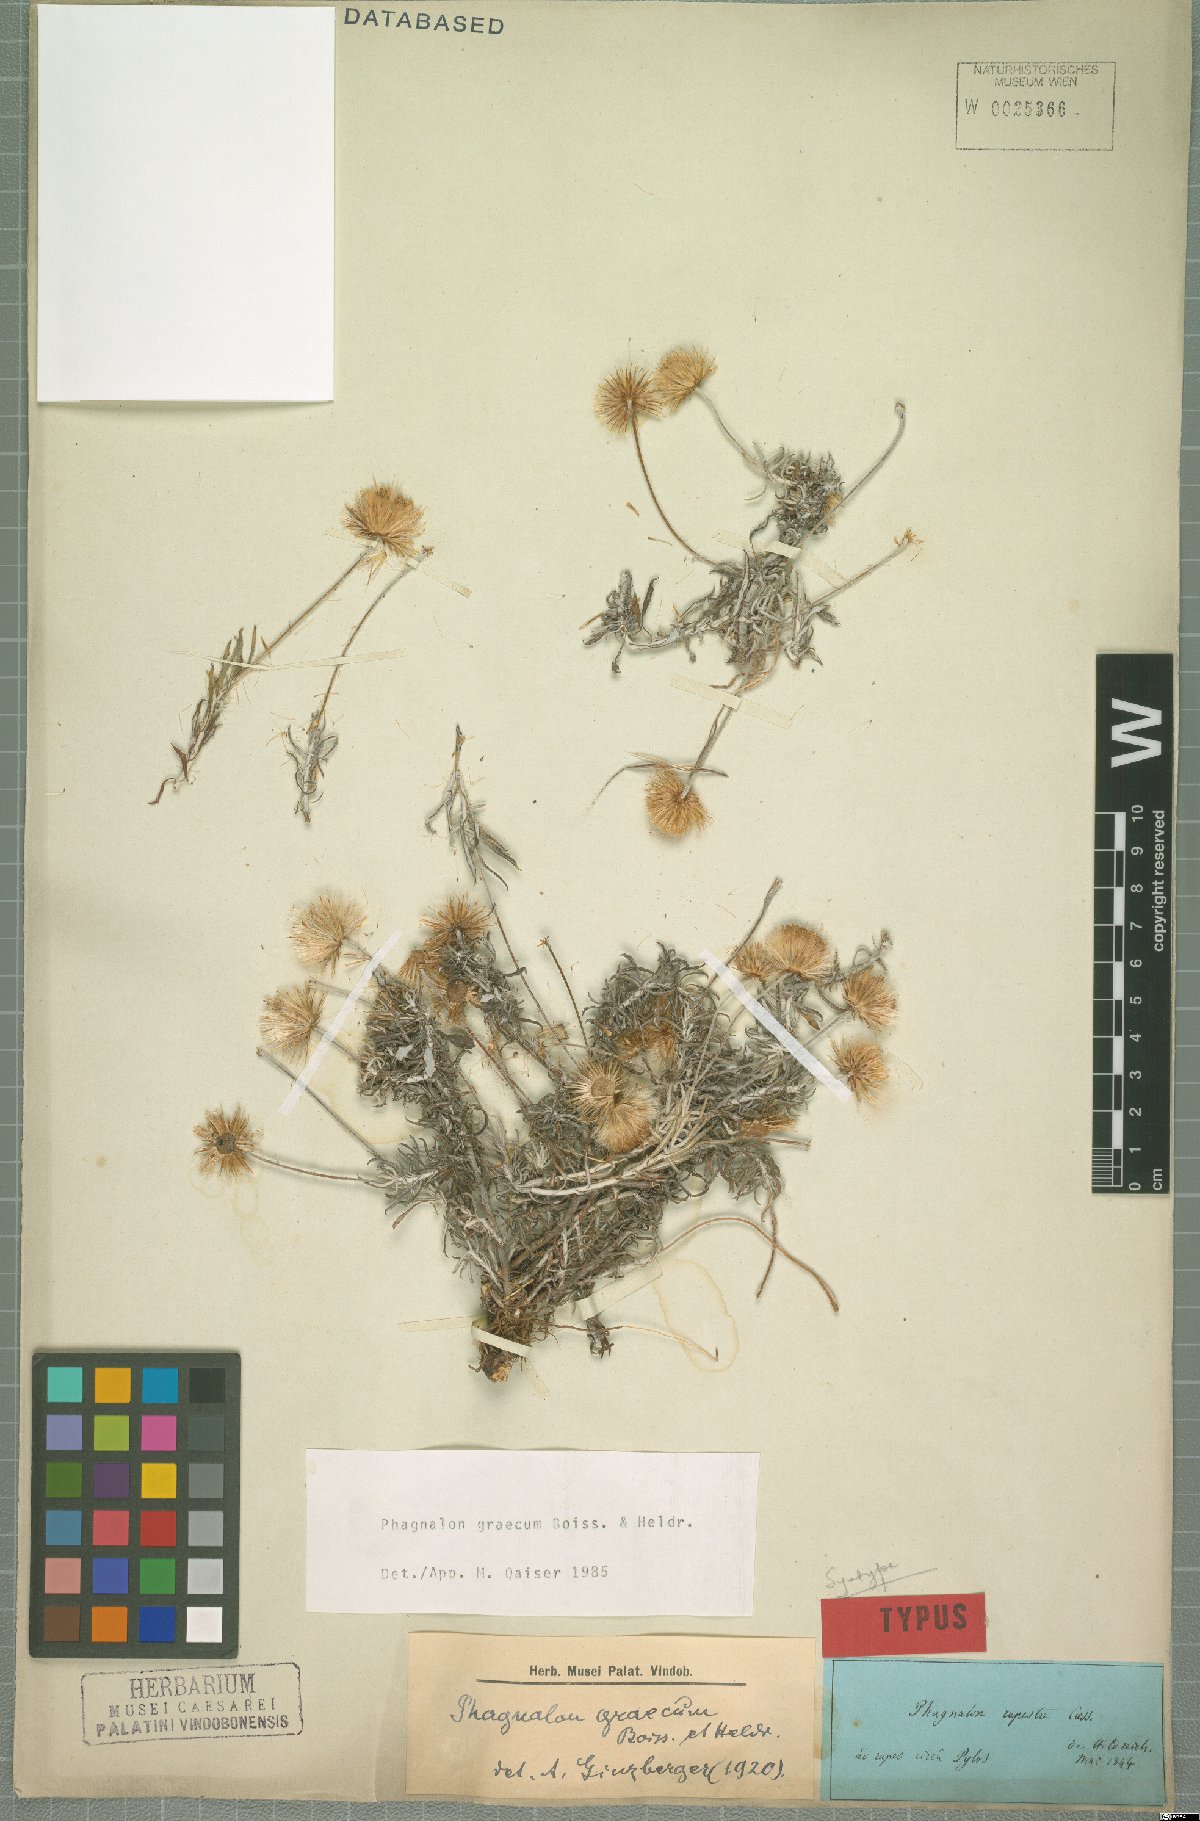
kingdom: Plantae
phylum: Tracheophyta
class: Magnoliopsida
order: Asterales
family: Asteraceae
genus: Phagnalon
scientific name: Phagnalon graecum
